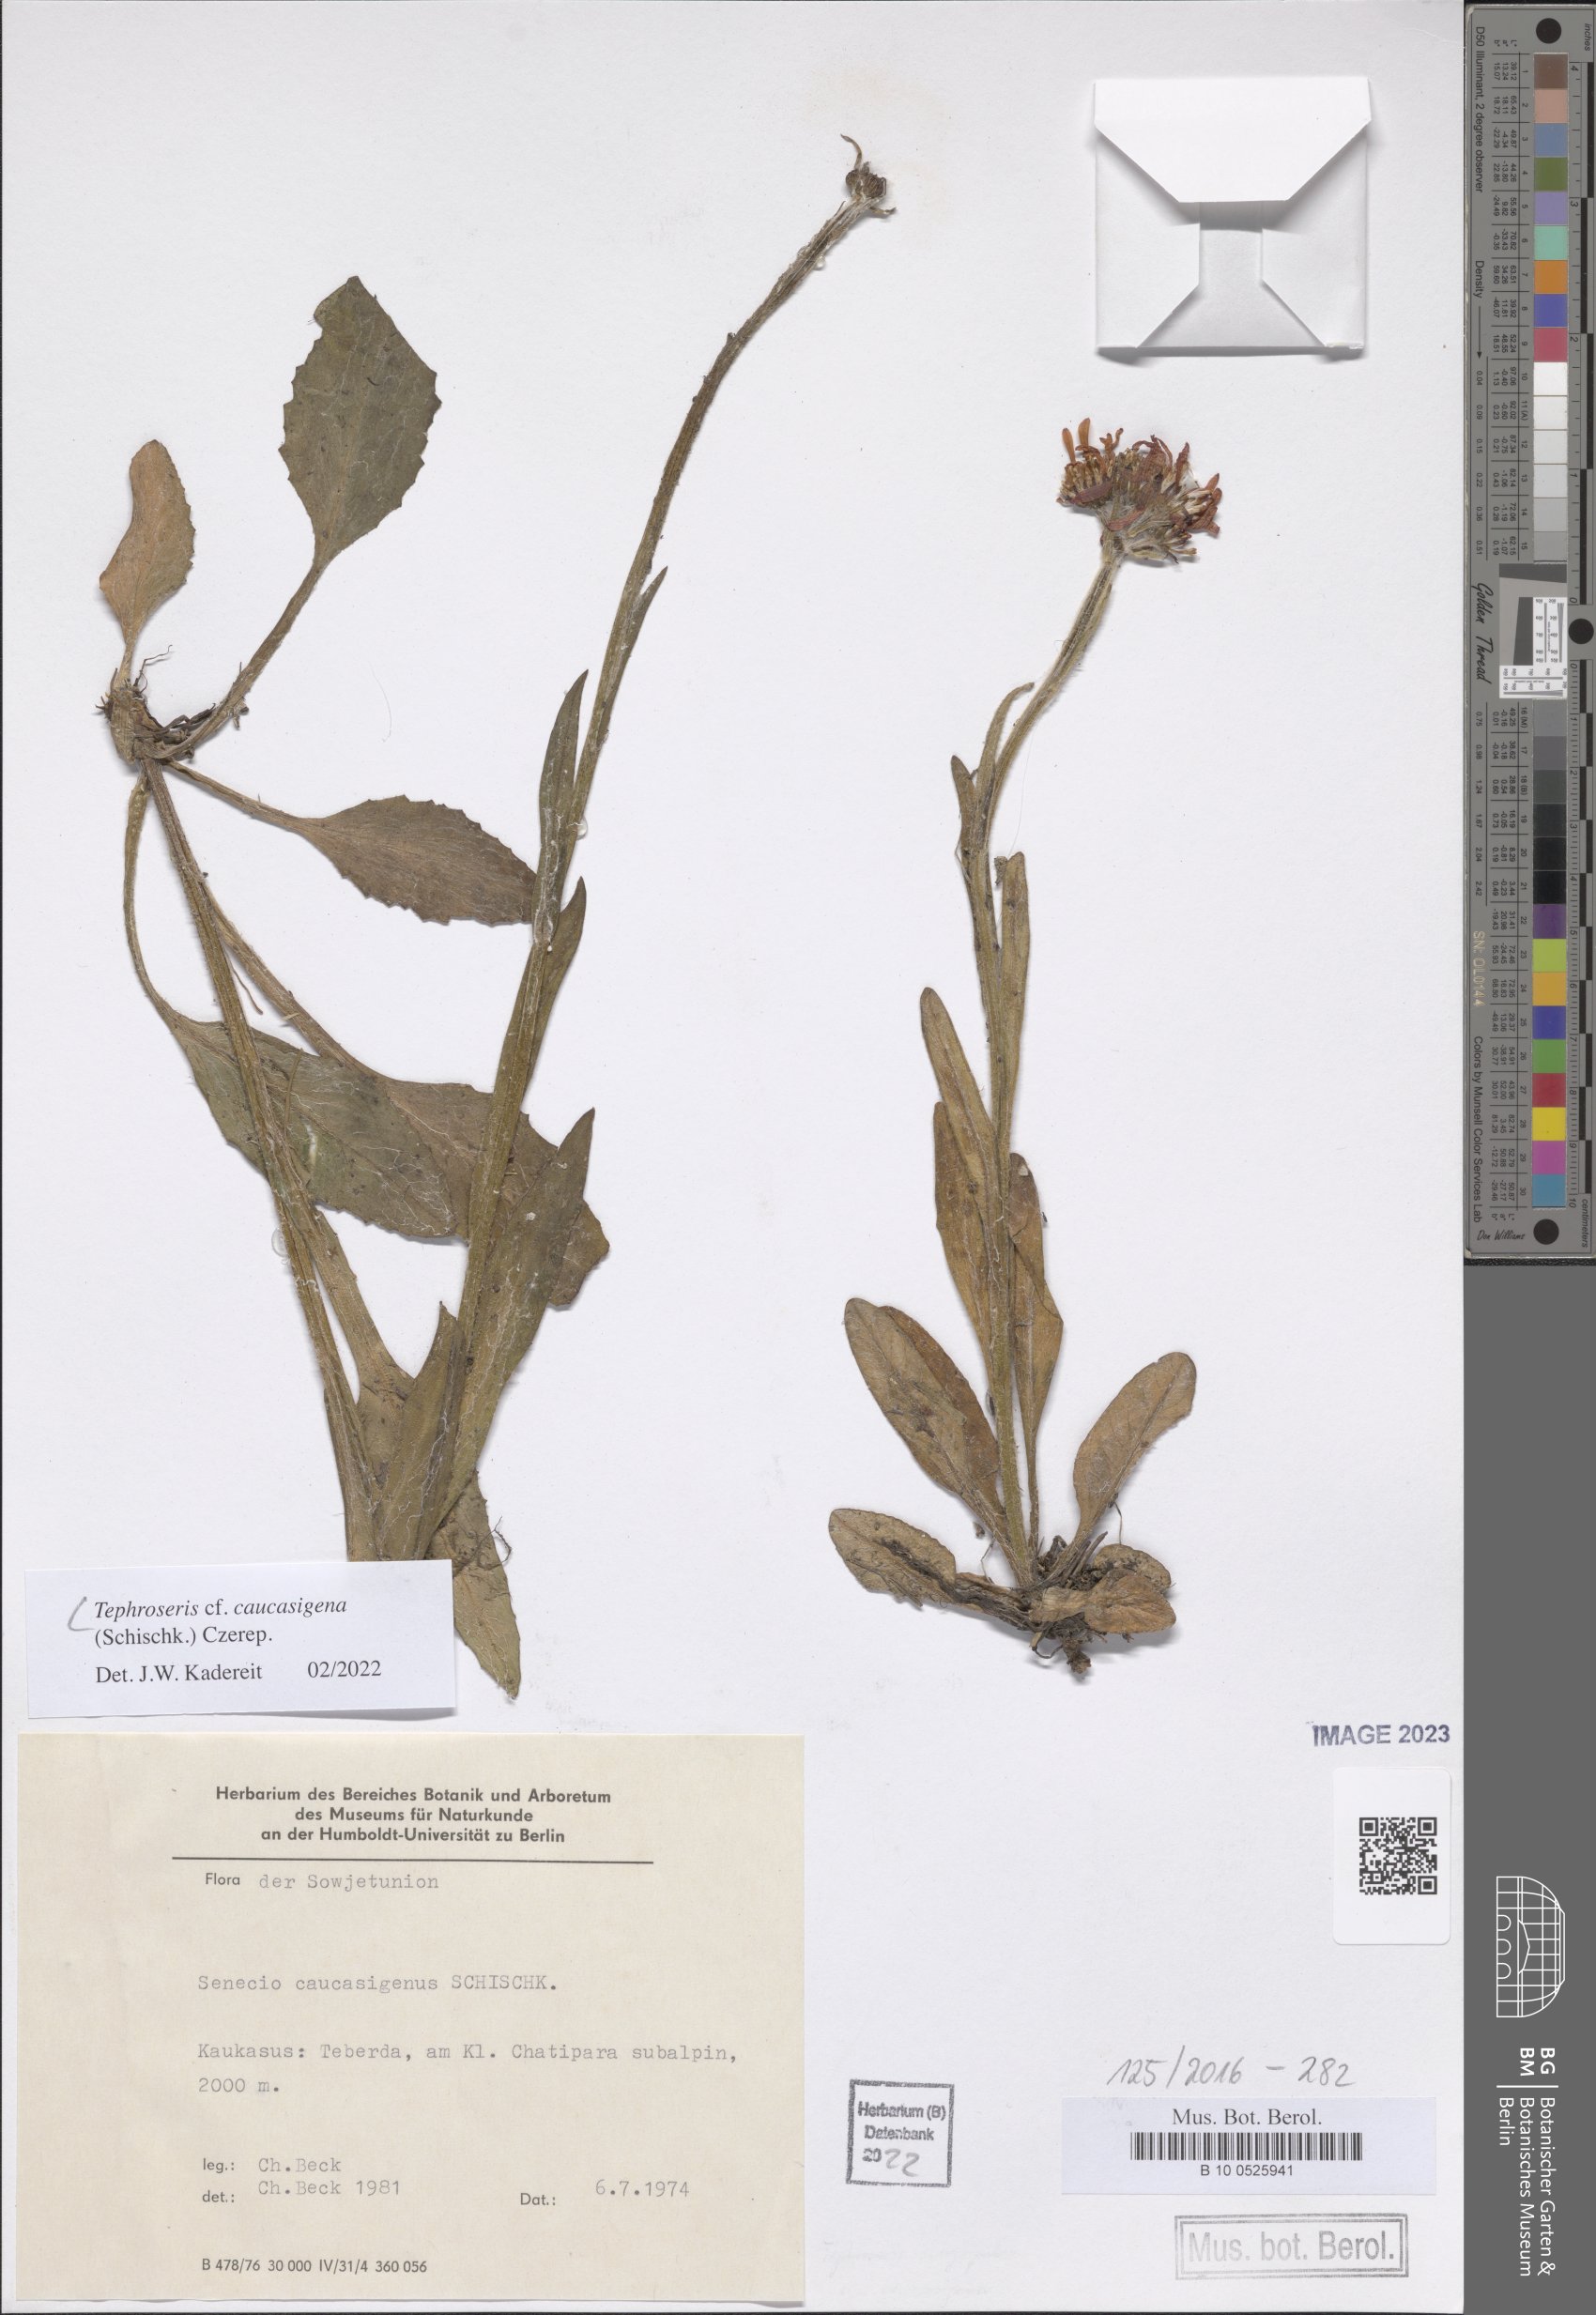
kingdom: Plantae
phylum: Tracheophyta
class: Magnoliopsida
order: Asterales
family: Asteraceae
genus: Tephroseris
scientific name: Tephroseris integrifolia
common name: Field fleawort
